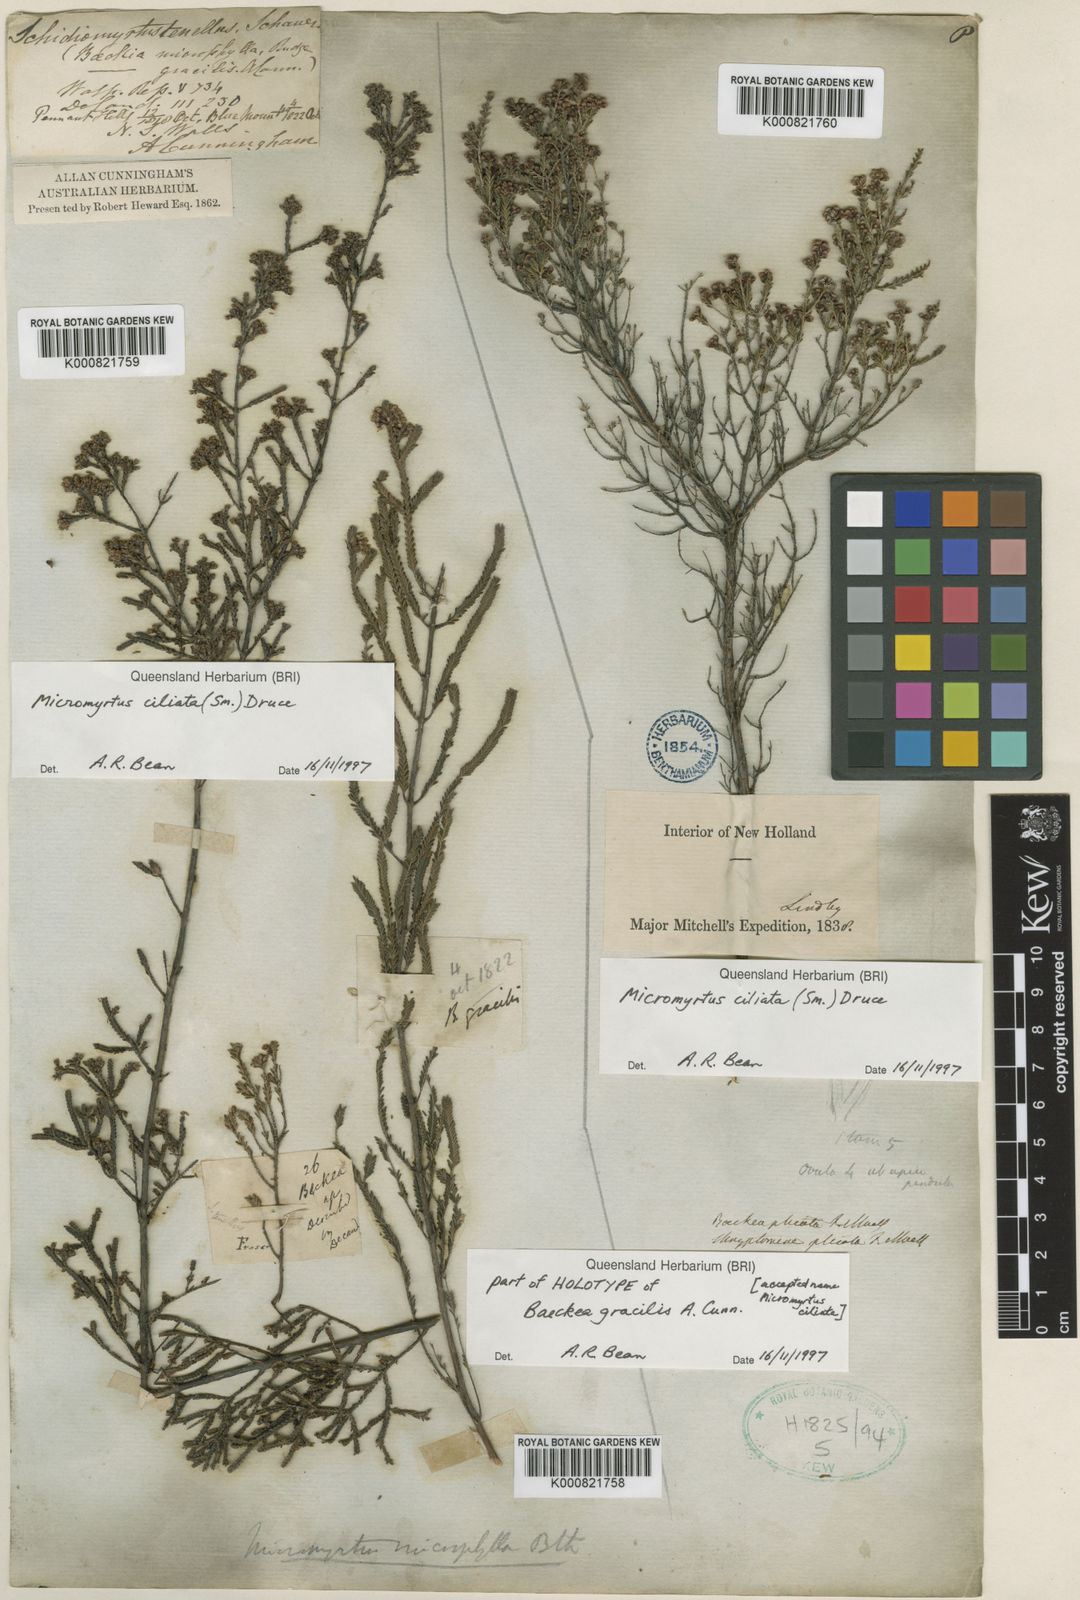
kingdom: Plantae
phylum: Tracheophyta
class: Magnoliopsida
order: Myrtales
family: Myrtaceae
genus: Micromyrtus
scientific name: Micromyrtus ciliata
